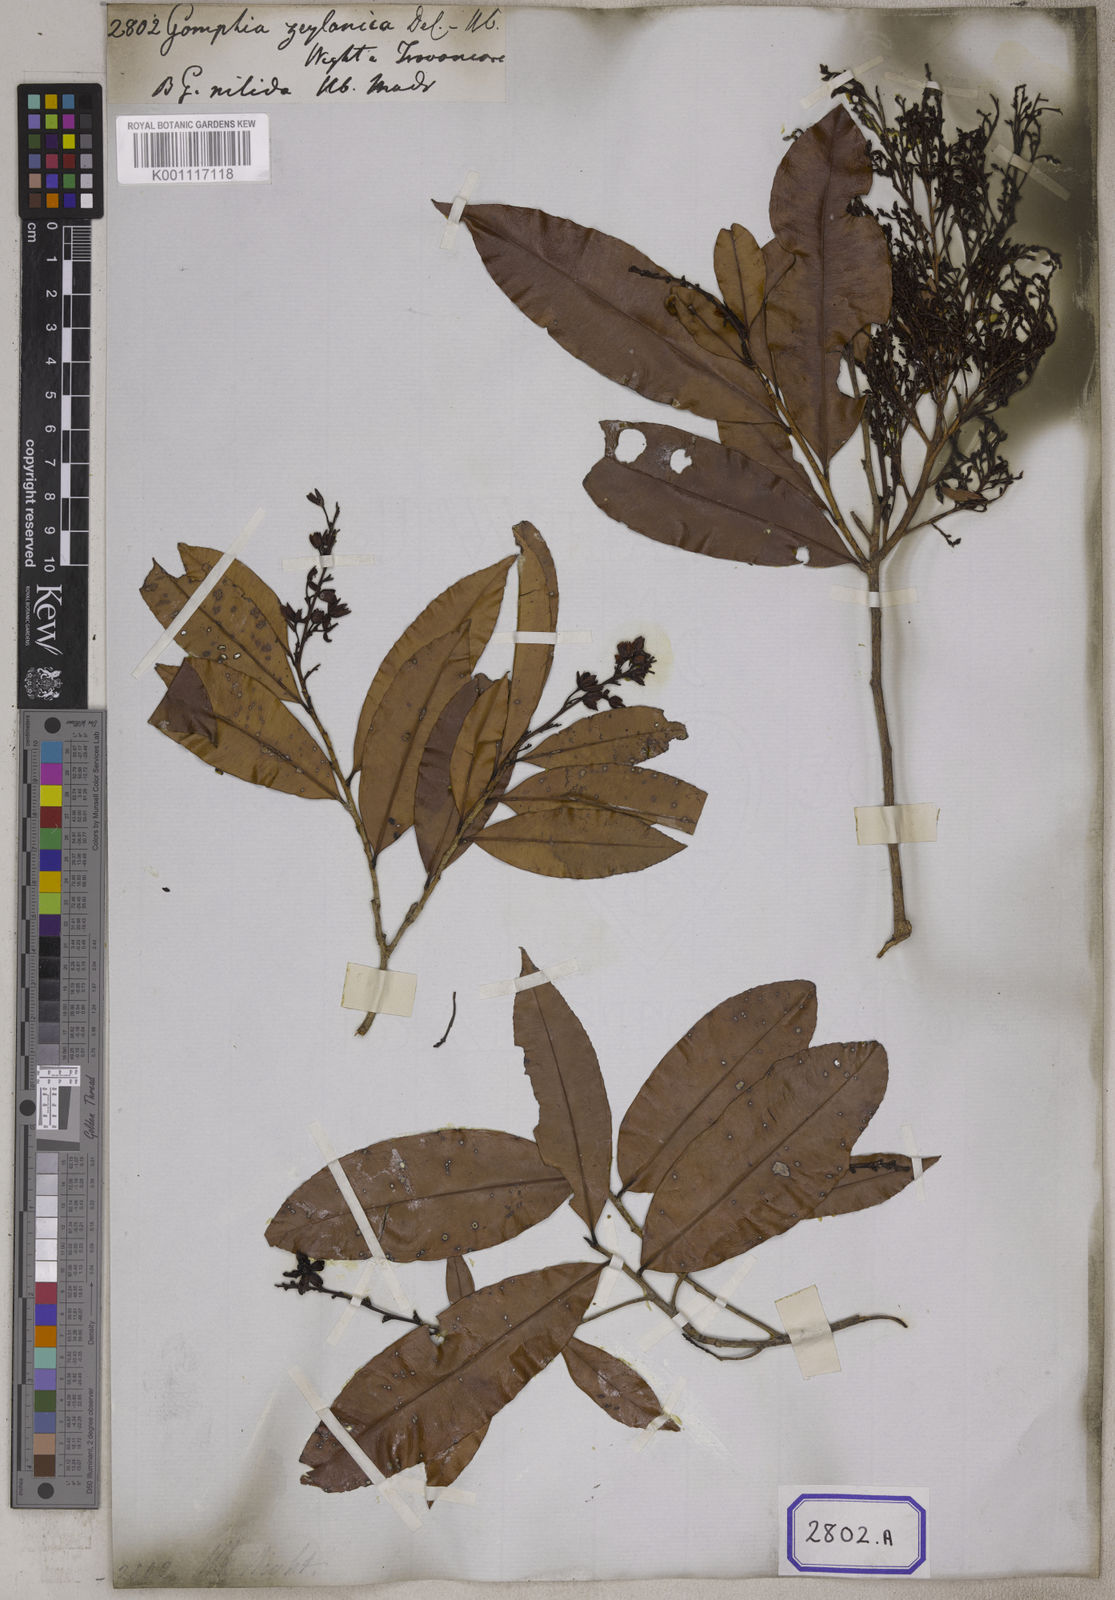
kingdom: Plantae
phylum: Tracheophyta
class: Magnoliopsida
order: Malpighiales
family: Ochnaceae
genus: Gomphia
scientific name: Gomphia serrata
